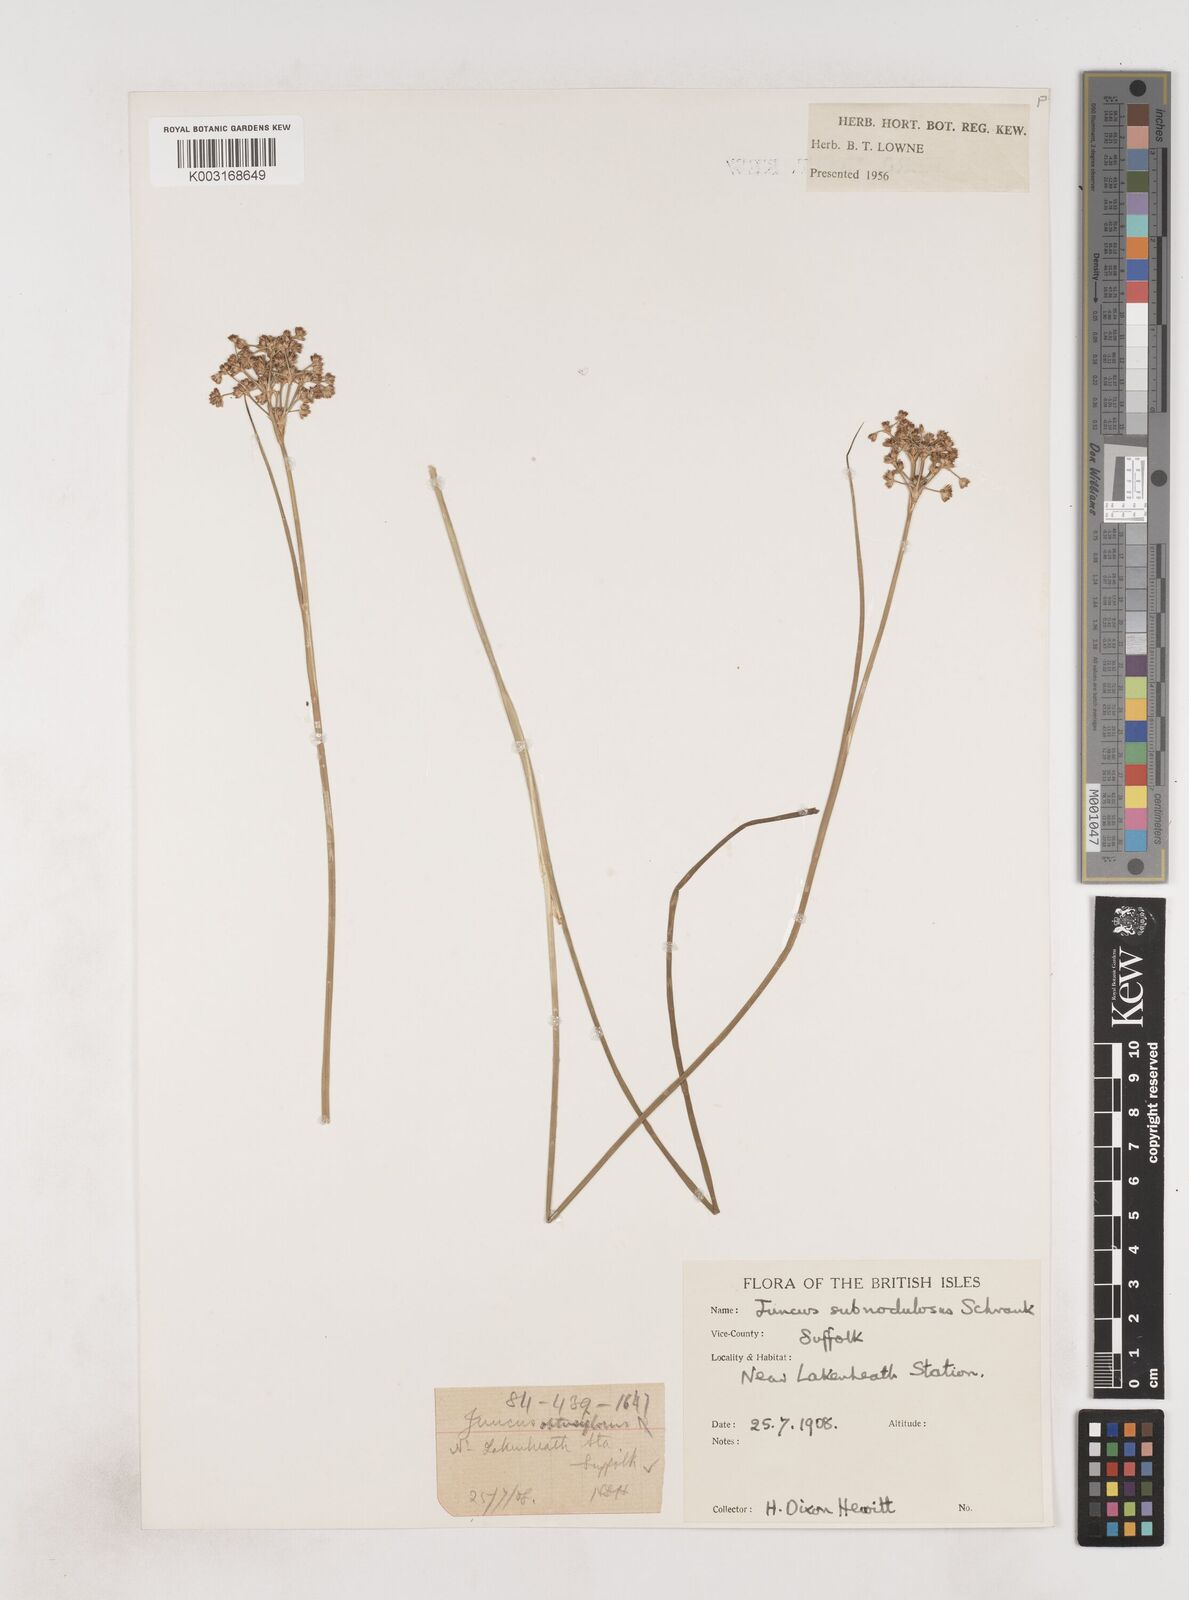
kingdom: Plantae
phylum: Tracheophyta
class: Liliopsida
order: Poales
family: Juncaceae
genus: Juncus
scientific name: Juncus subnodulosus
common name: Blunt-flowered rush
